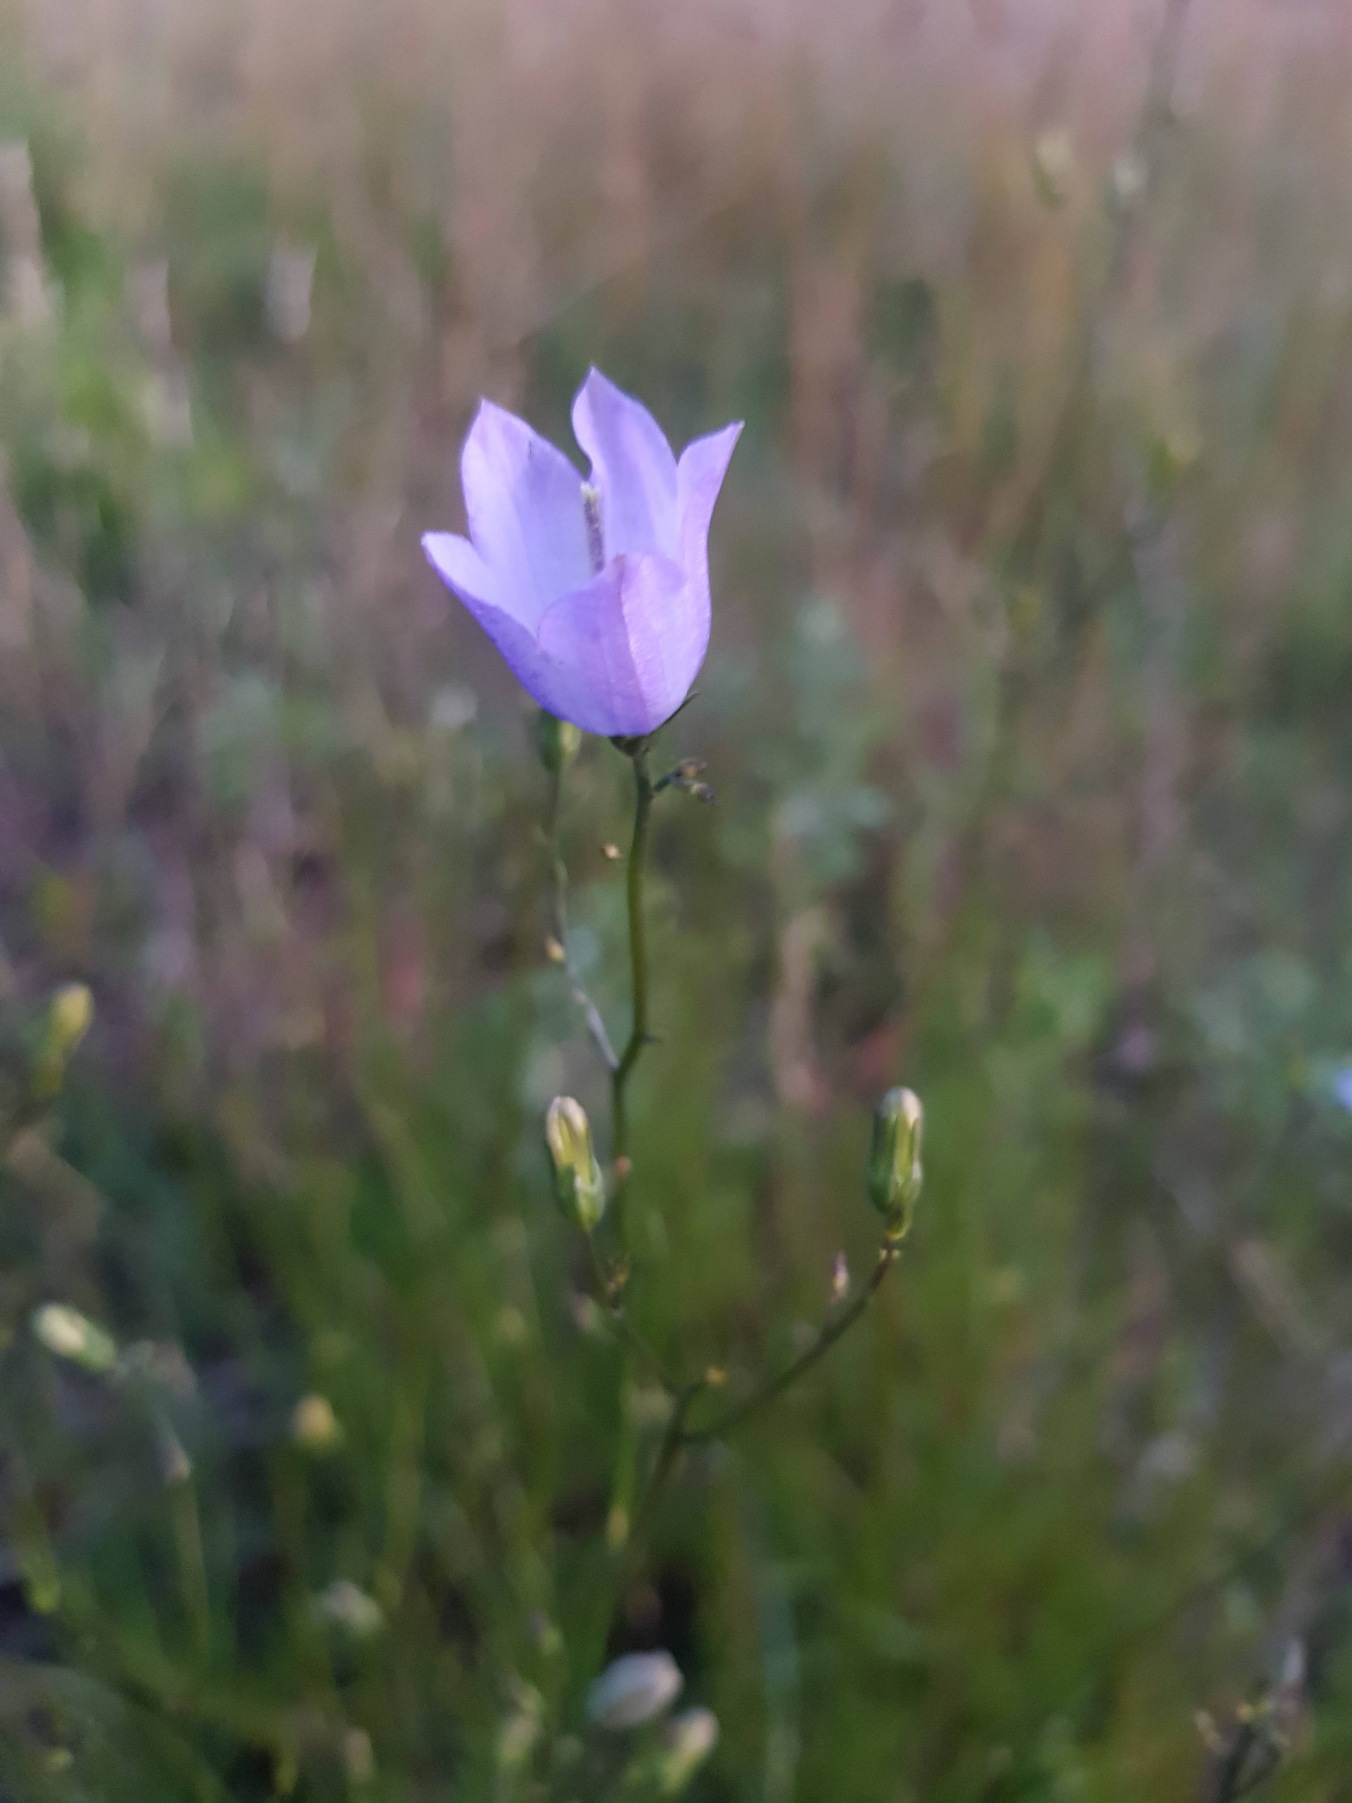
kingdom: Plantae
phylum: Tracheophyta
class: Magnoliopsida
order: Asterales
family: Campanulaceae
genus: Campanula
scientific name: Campanula rotundifolia
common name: Liden klokke
